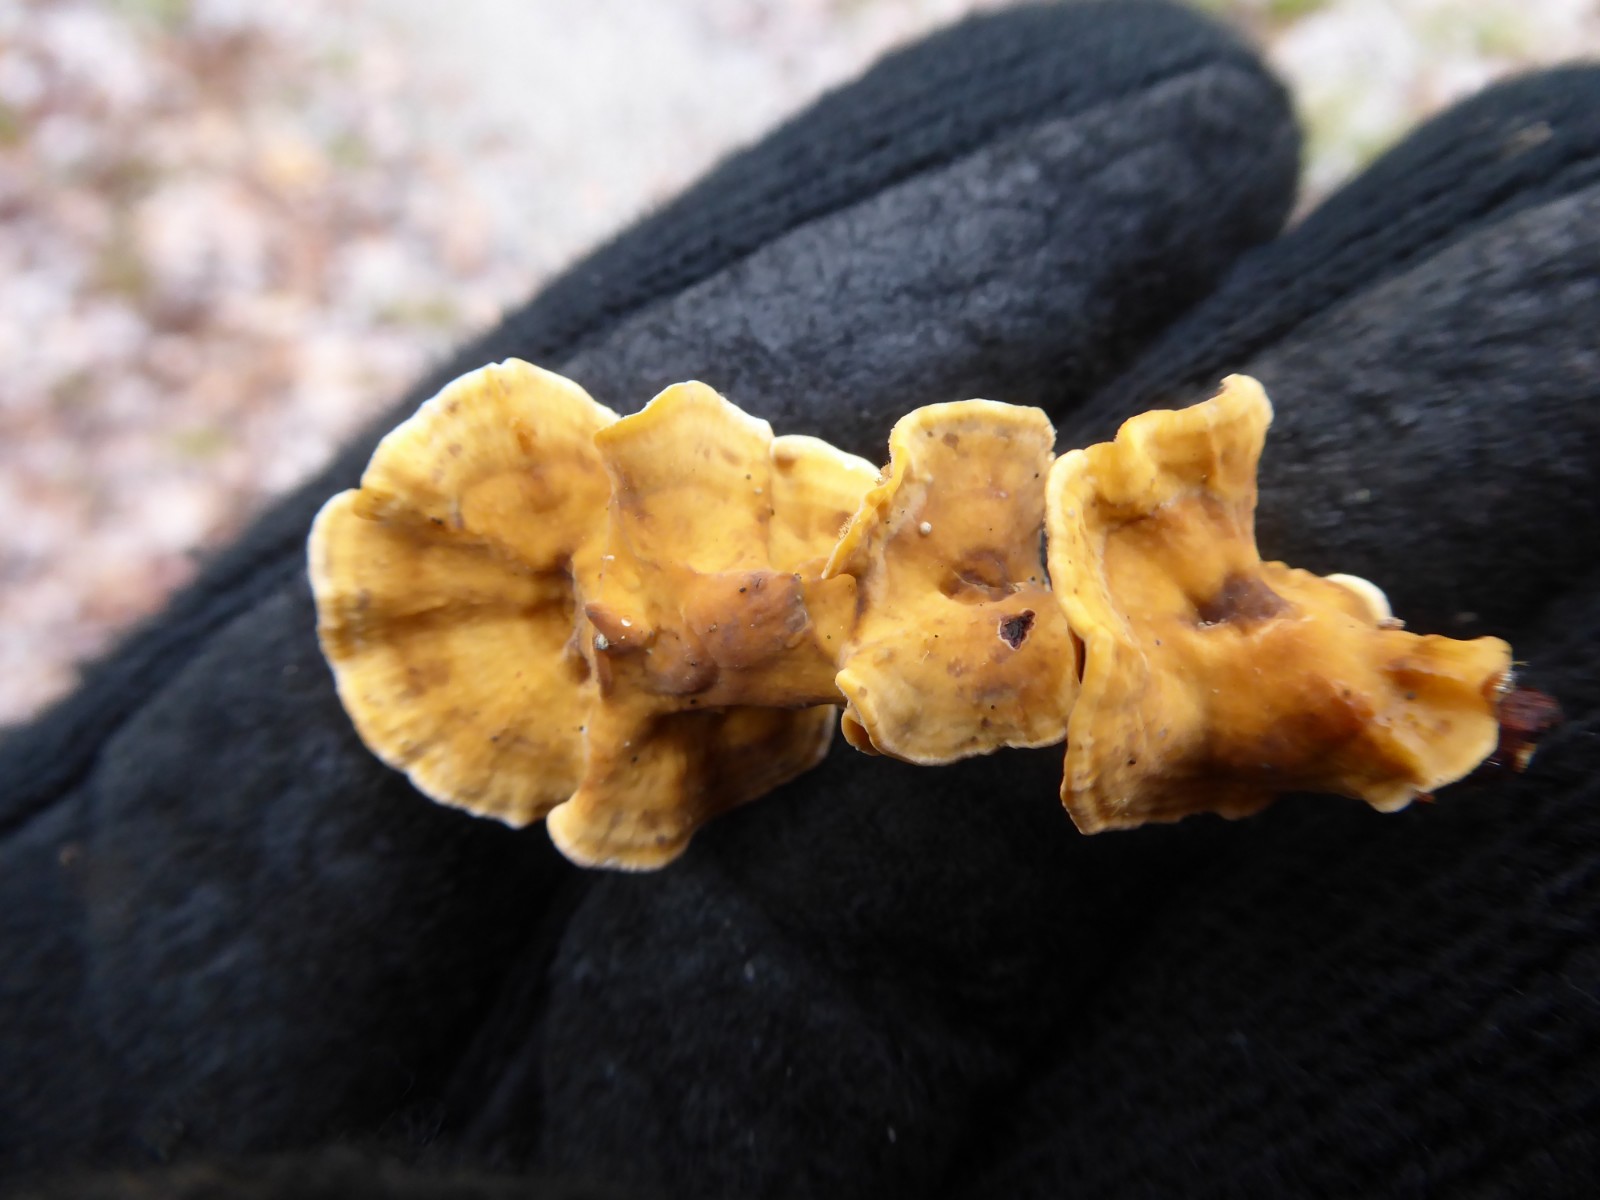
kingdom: Fungi
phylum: Basidiomycota
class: Agaricomycetes
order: Russulales
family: Stereaceae
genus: Stereum
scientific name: Stereum hirsutum
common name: håret lædersvamp
